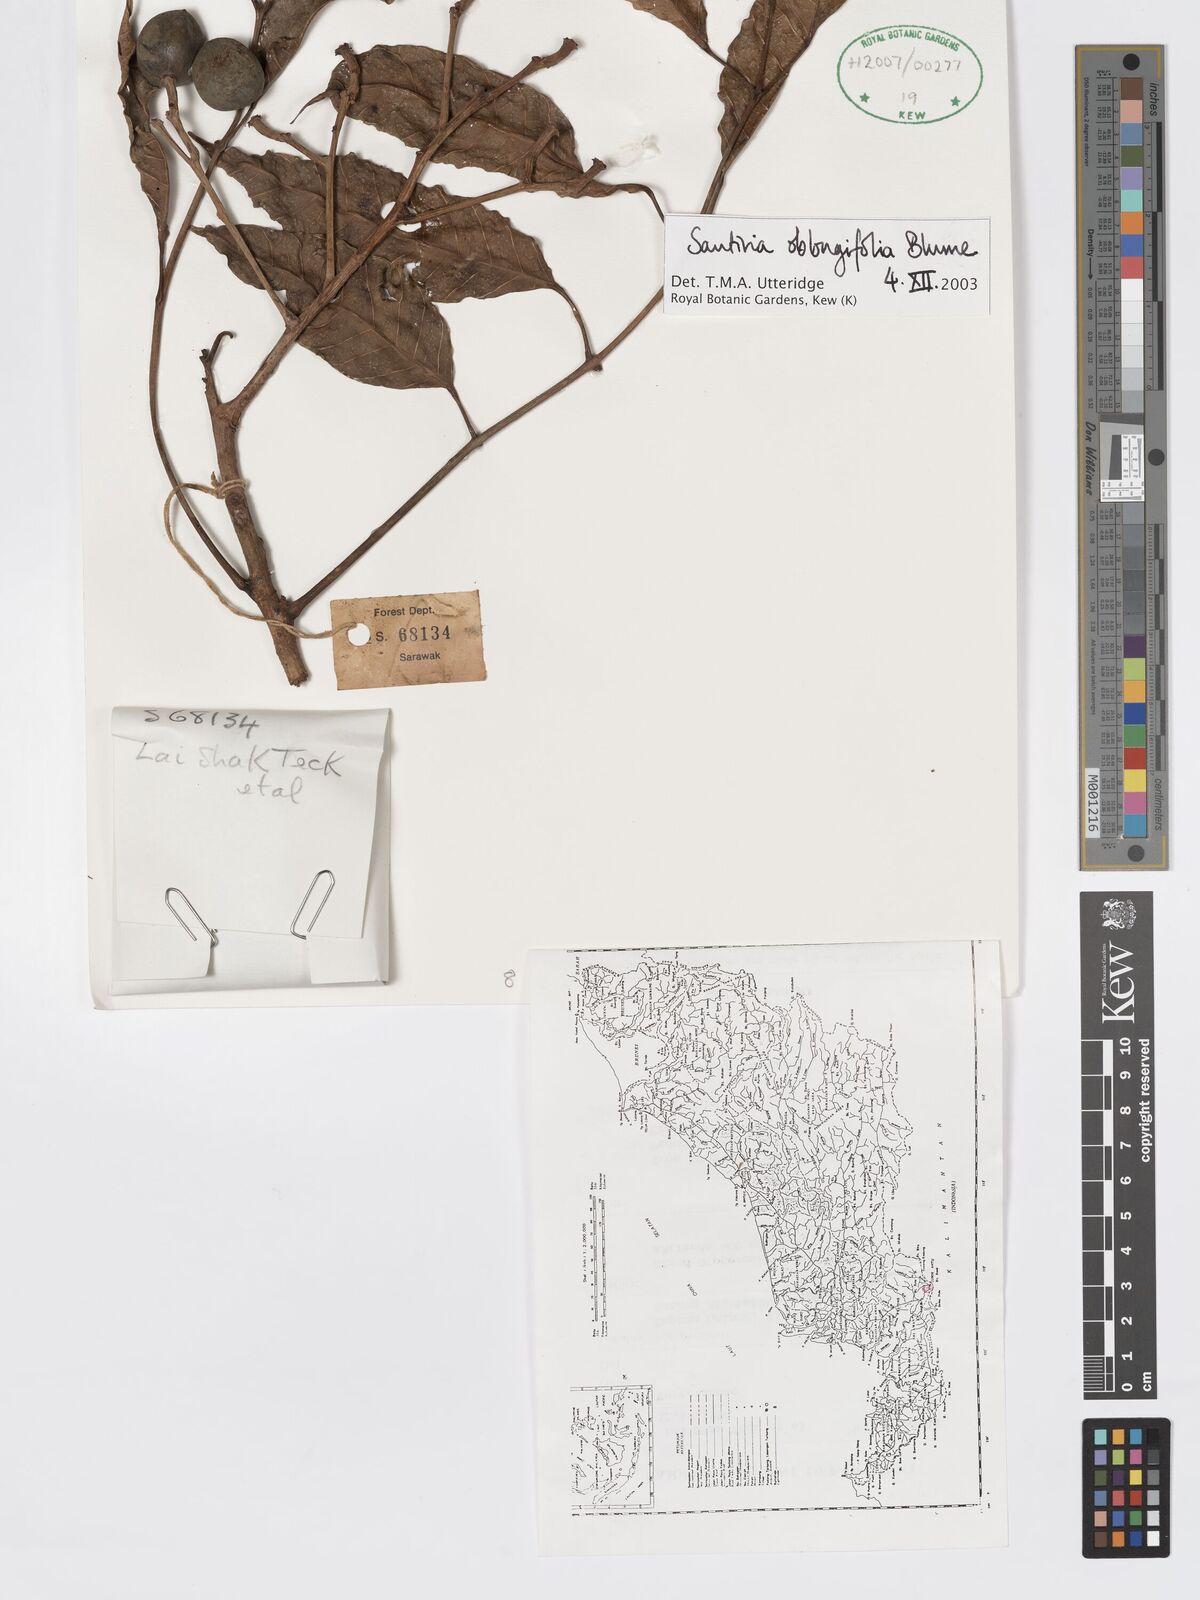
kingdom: Plantae
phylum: Tracheophyta
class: Magnoliopsida
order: Sapindales
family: Burseraceae
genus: Santiria
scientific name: Santiria oblongifolia
